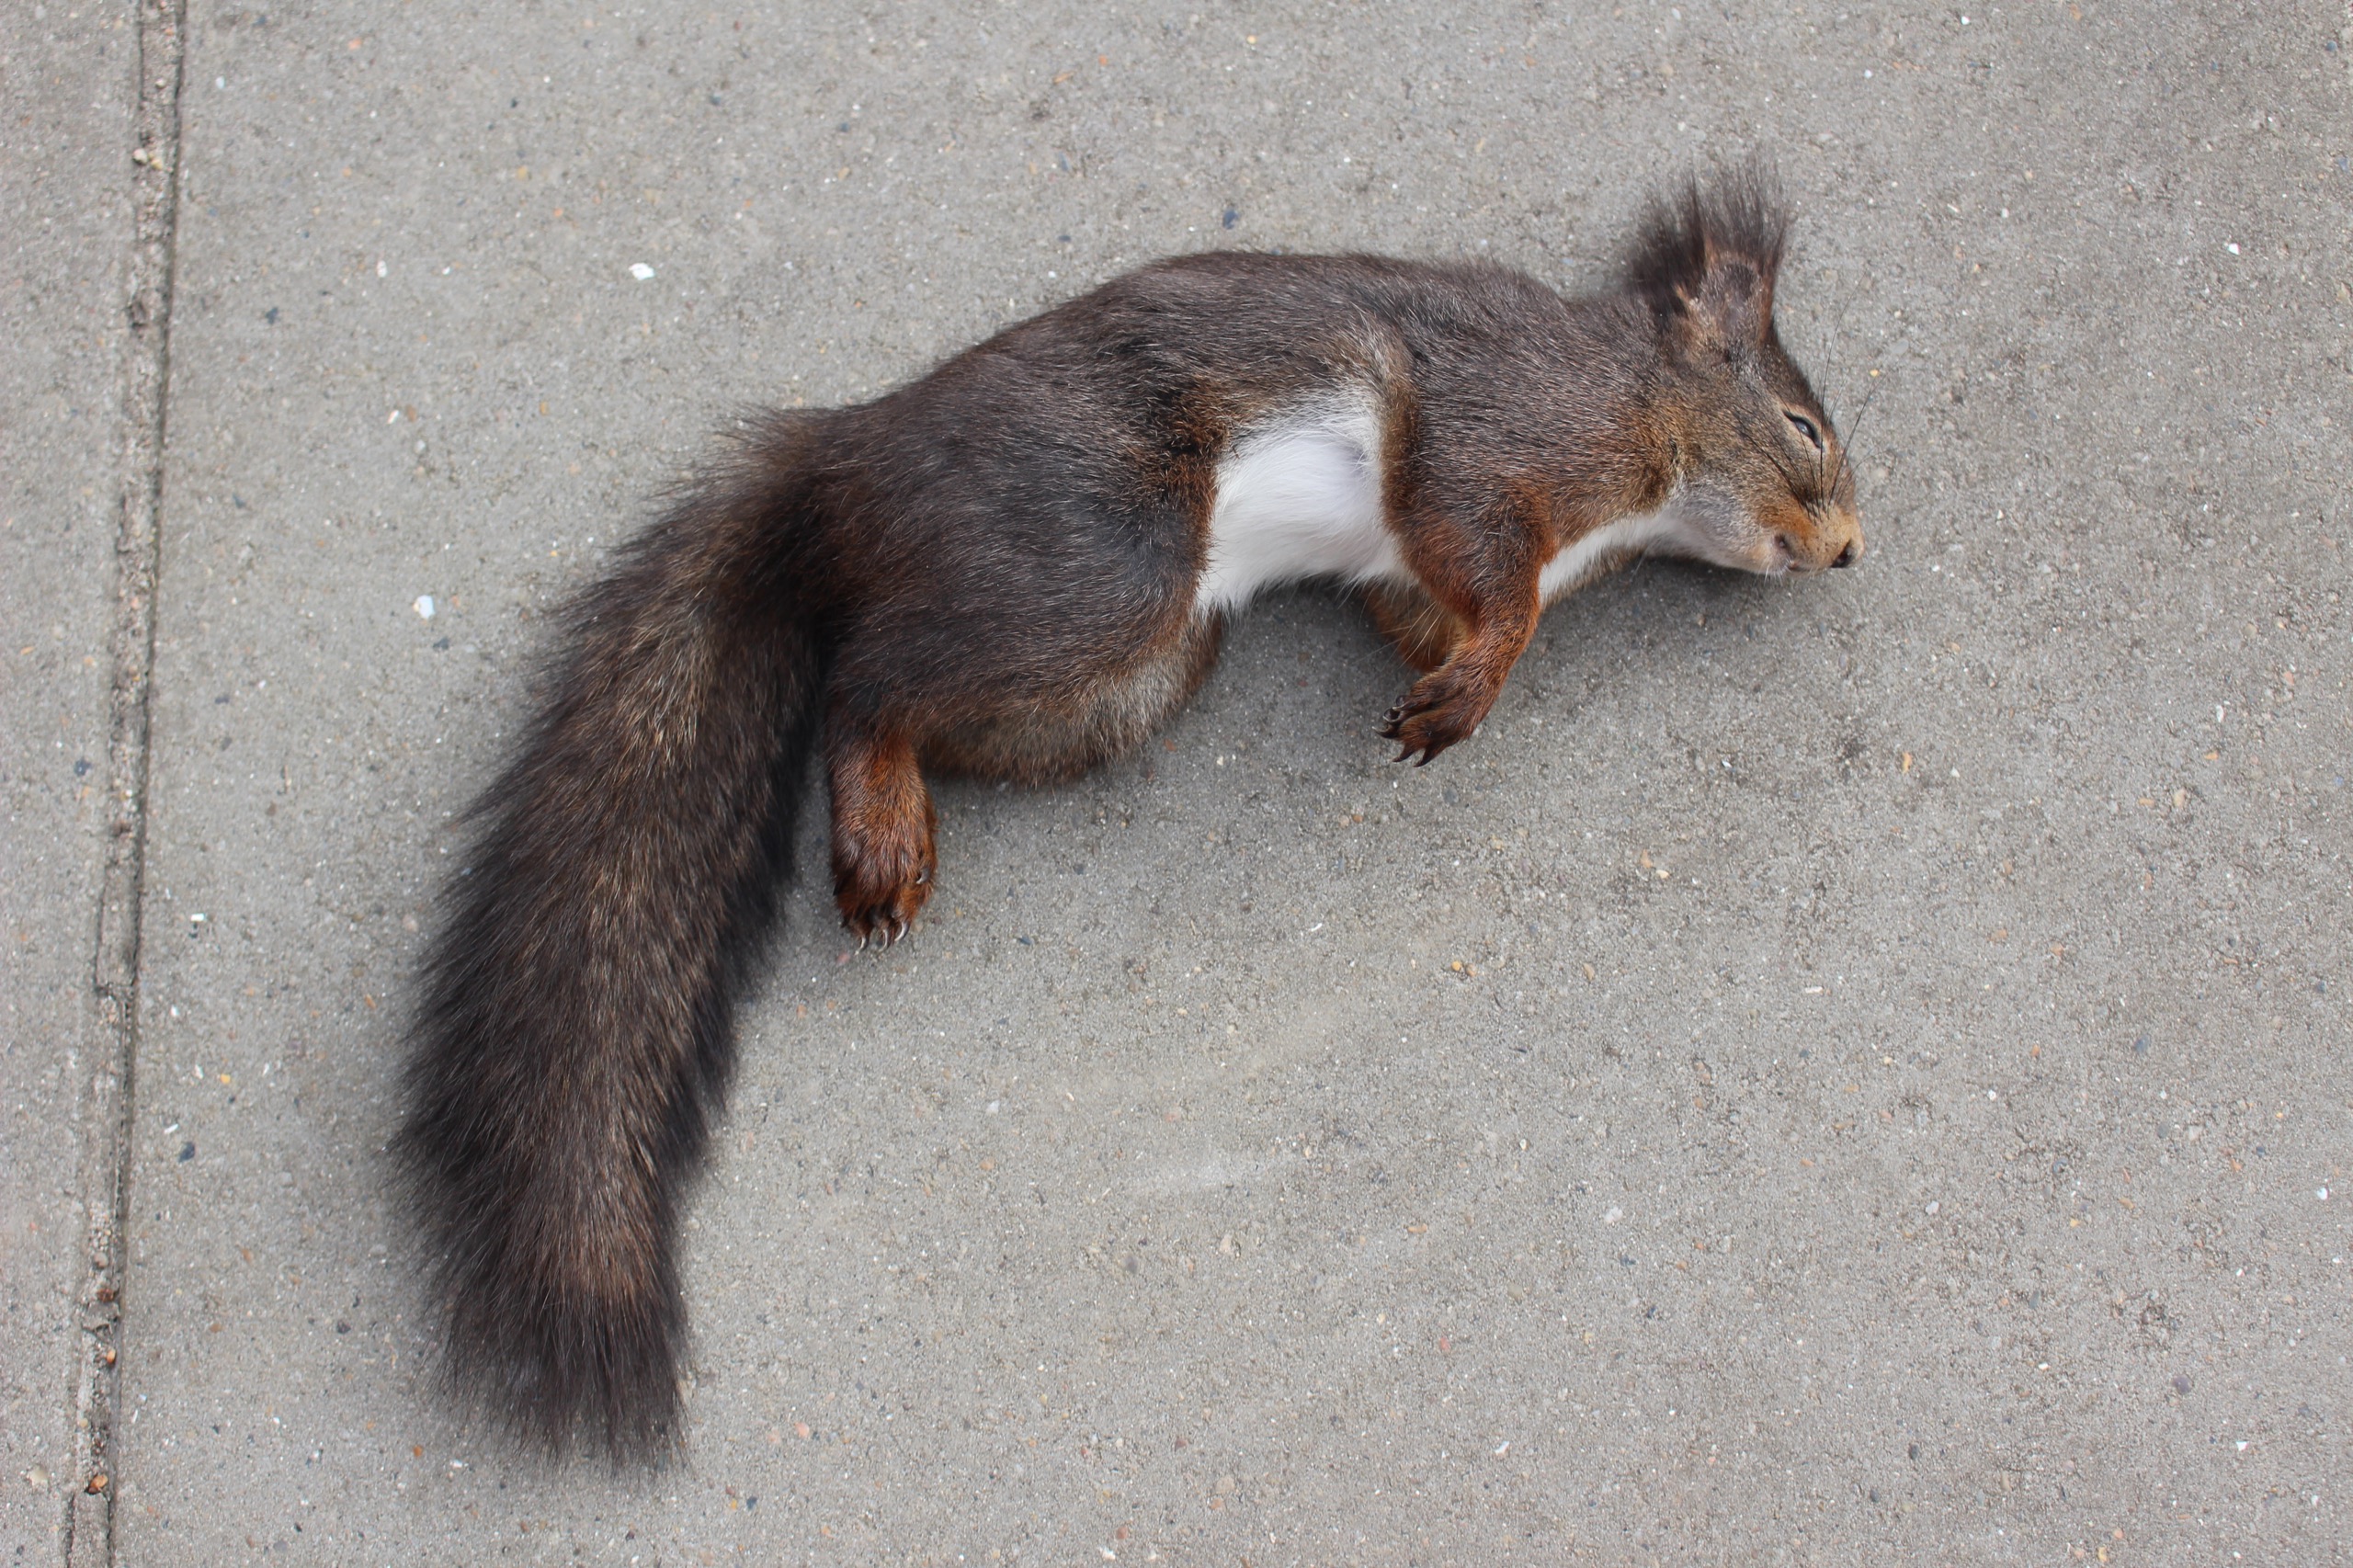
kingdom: Animalia
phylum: Chordata
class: Mammalia
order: Rodentia
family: Sciuridae
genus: Sciurus
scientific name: Sciurus vulgaris
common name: Egern
